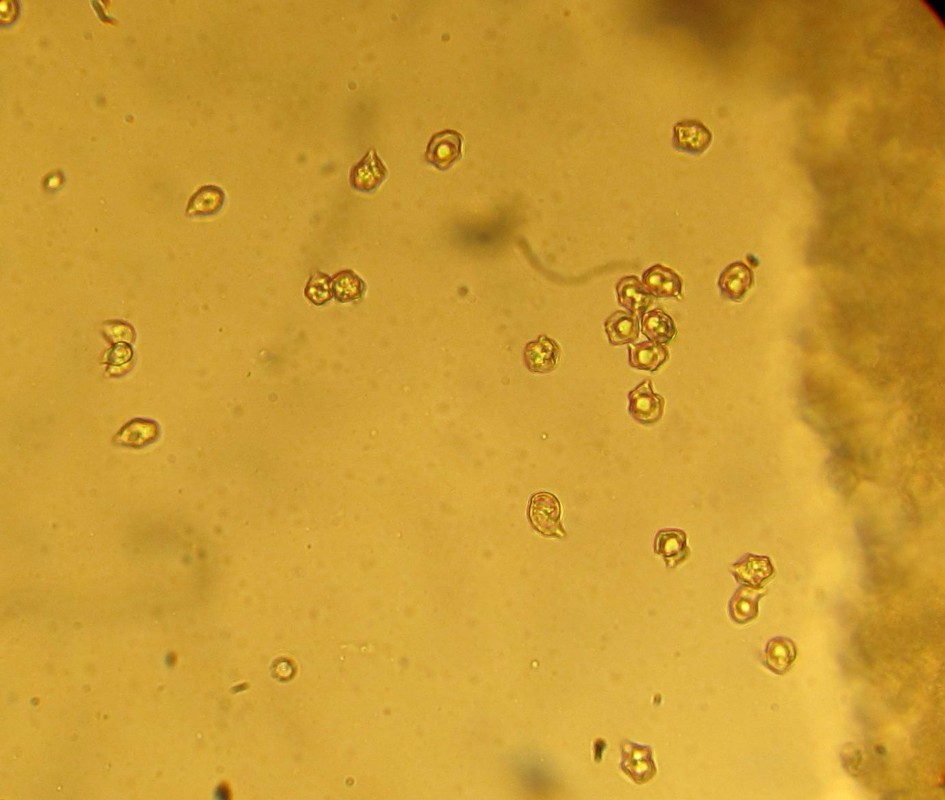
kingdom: Fungi
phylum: Basidiomycota
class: Agaricomycetes
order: Agaricales
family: Entolomataceae
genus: Entoloma
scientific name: Entoloma lividoalbum
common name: lysstokket rødblad
